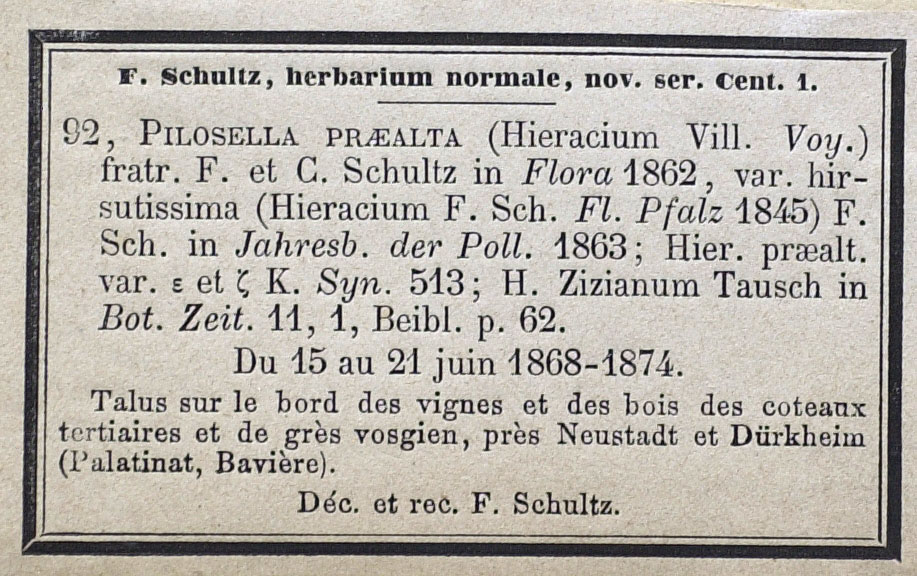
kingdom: Plantae
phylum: Tracheophyta
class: Magnoliopsida
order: Asterales
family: Asteraceae
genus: Pilosella
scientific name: Pilosella calodon
